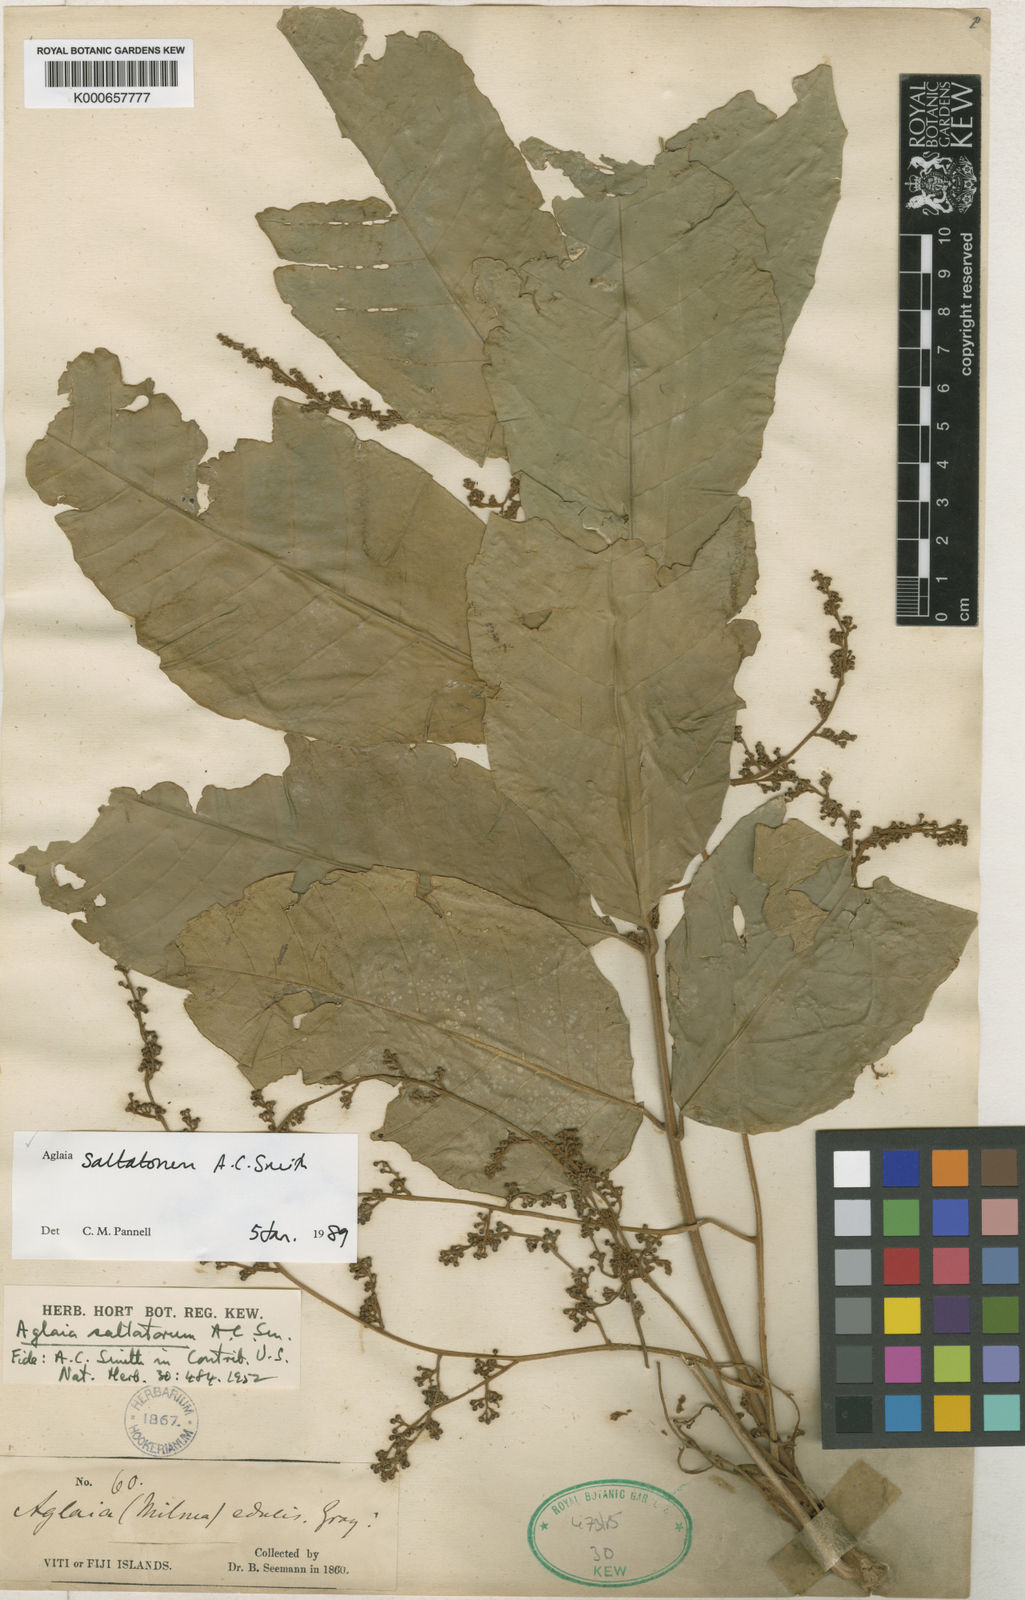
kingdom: Plantae
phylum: Tracheophyta
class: Magnoliopsida
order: Sapindales
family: Meliaceae
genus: Aglaia
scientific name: Aglaia saltatorum
